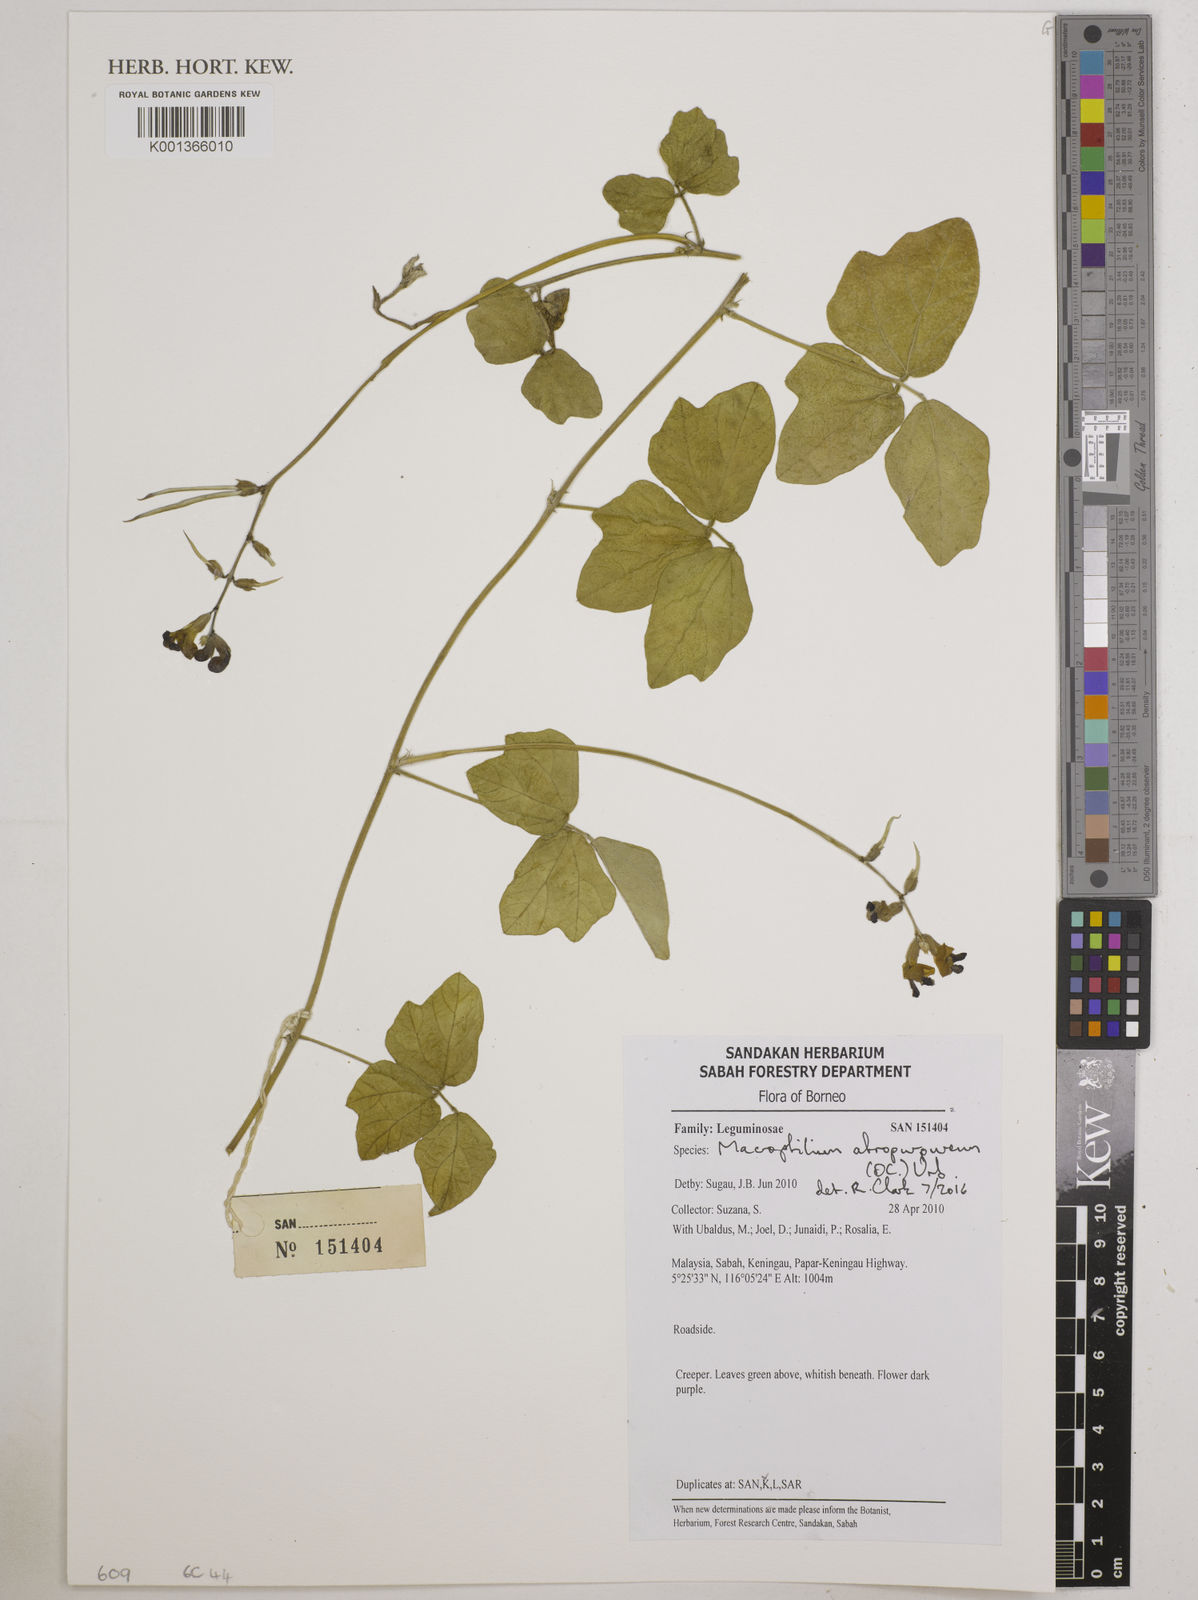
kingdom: Plantae
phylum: Tracheophyta
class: Magnoliopsida
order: Fabales
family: Fabaceae
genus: Macroptilium
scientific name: Macroptilium atropurpureum
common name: Purple bushbean
